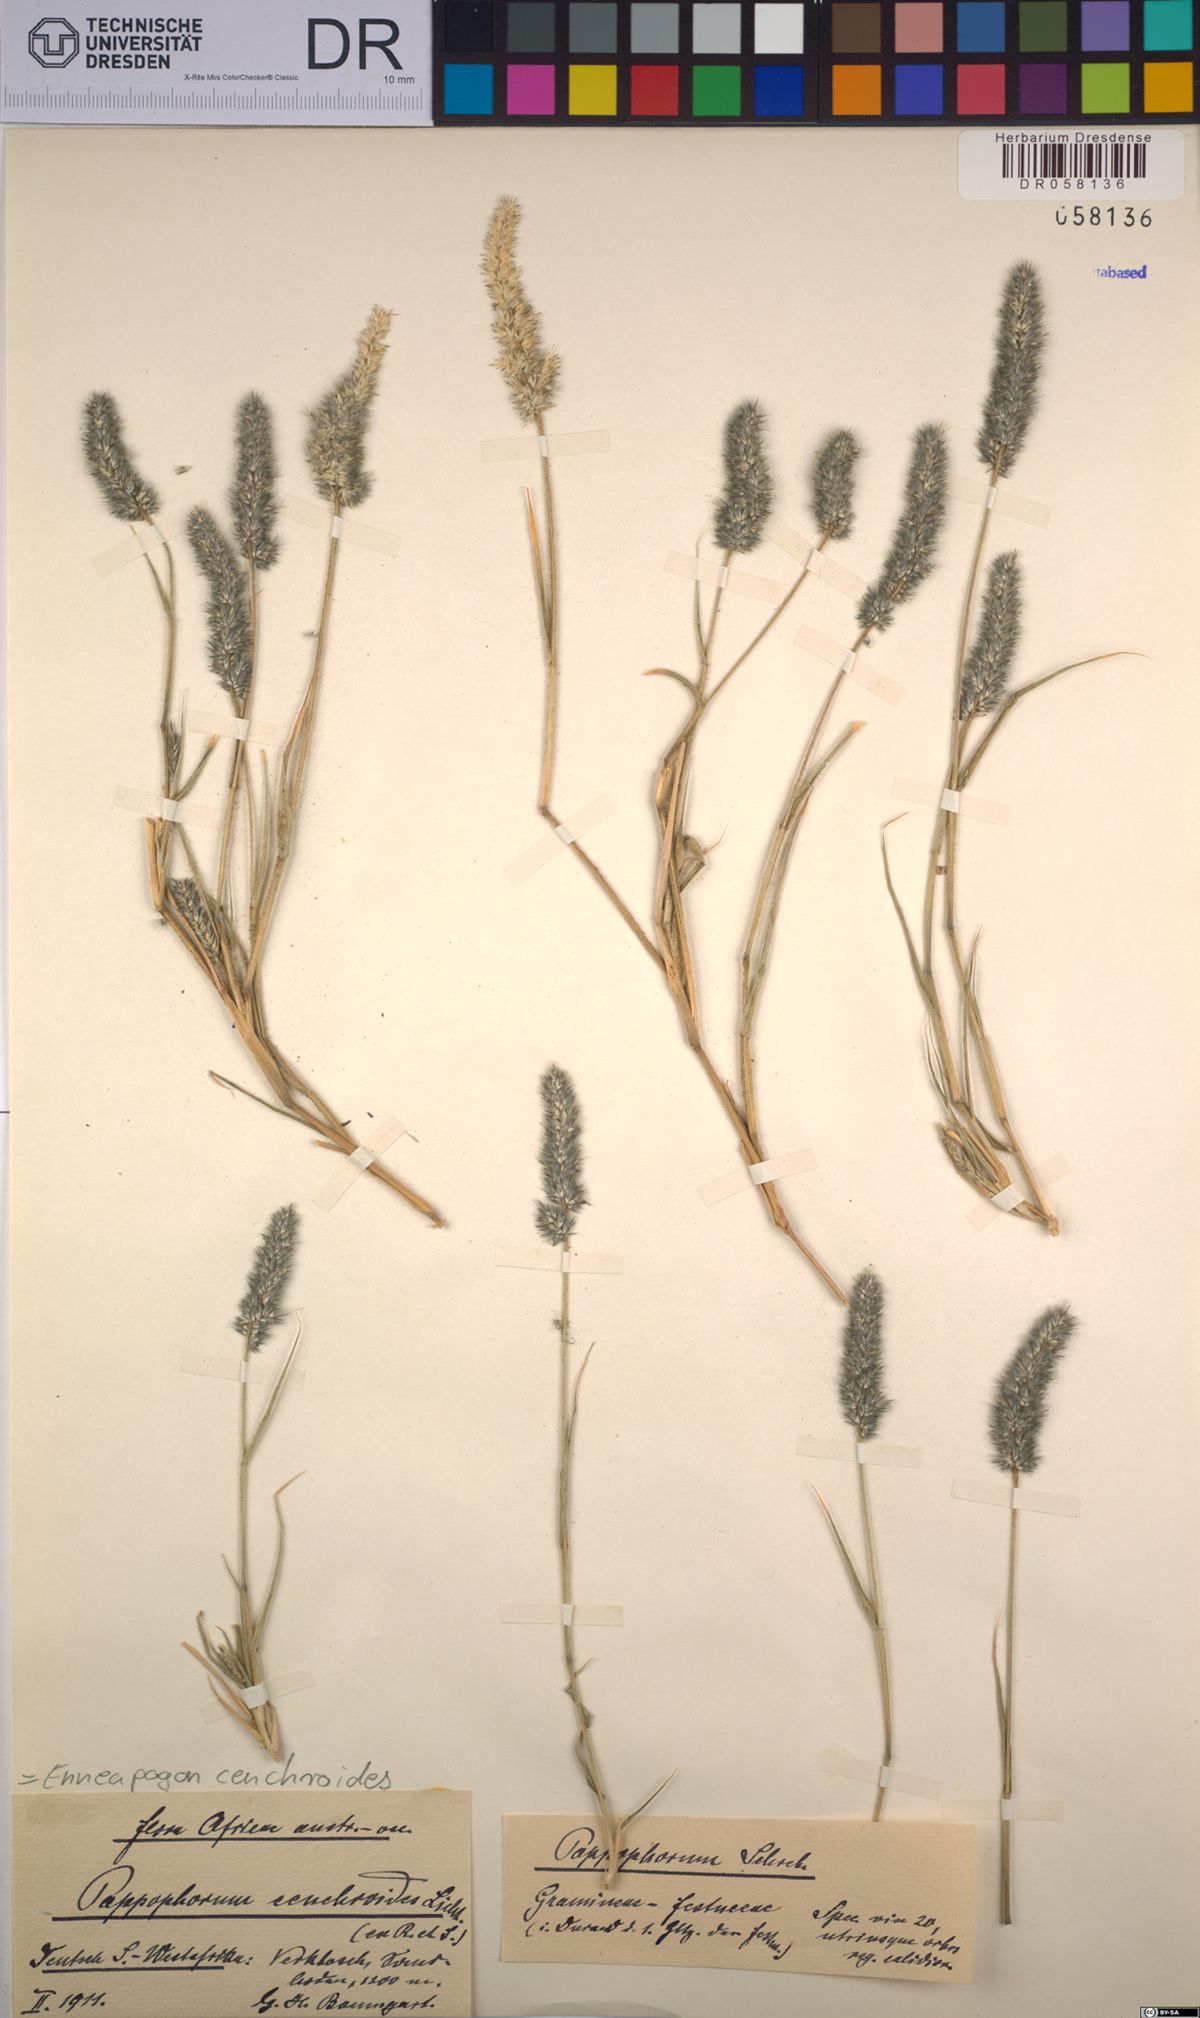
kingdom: Plantae
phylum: Tracheophyta
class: Liliopsida
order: Poales
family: Poaceae
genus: Enneapogon
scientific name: Enneapogon cenchroides
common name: Soft feather pappusgrass
